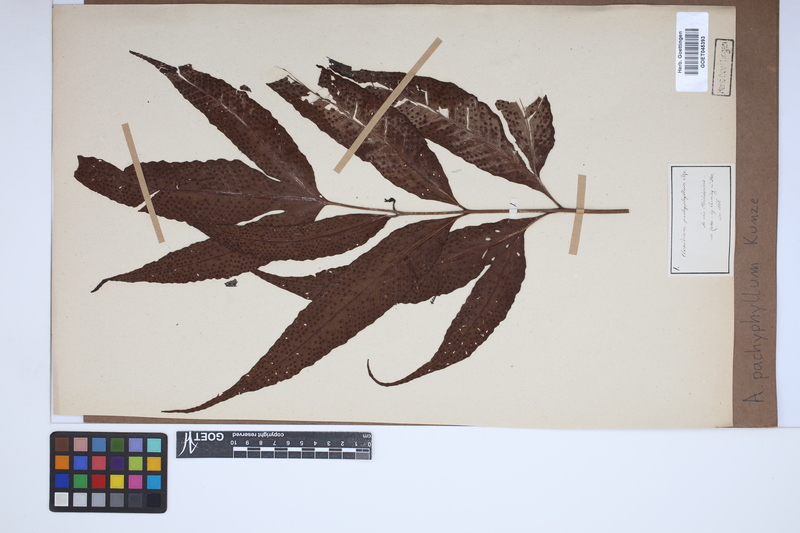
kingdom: Plantae
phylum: Tracheophyta
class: Polypodiopsida
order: Polypodiales
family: Tectariaceae
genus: Tectaria
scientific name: Tectaria crenata
